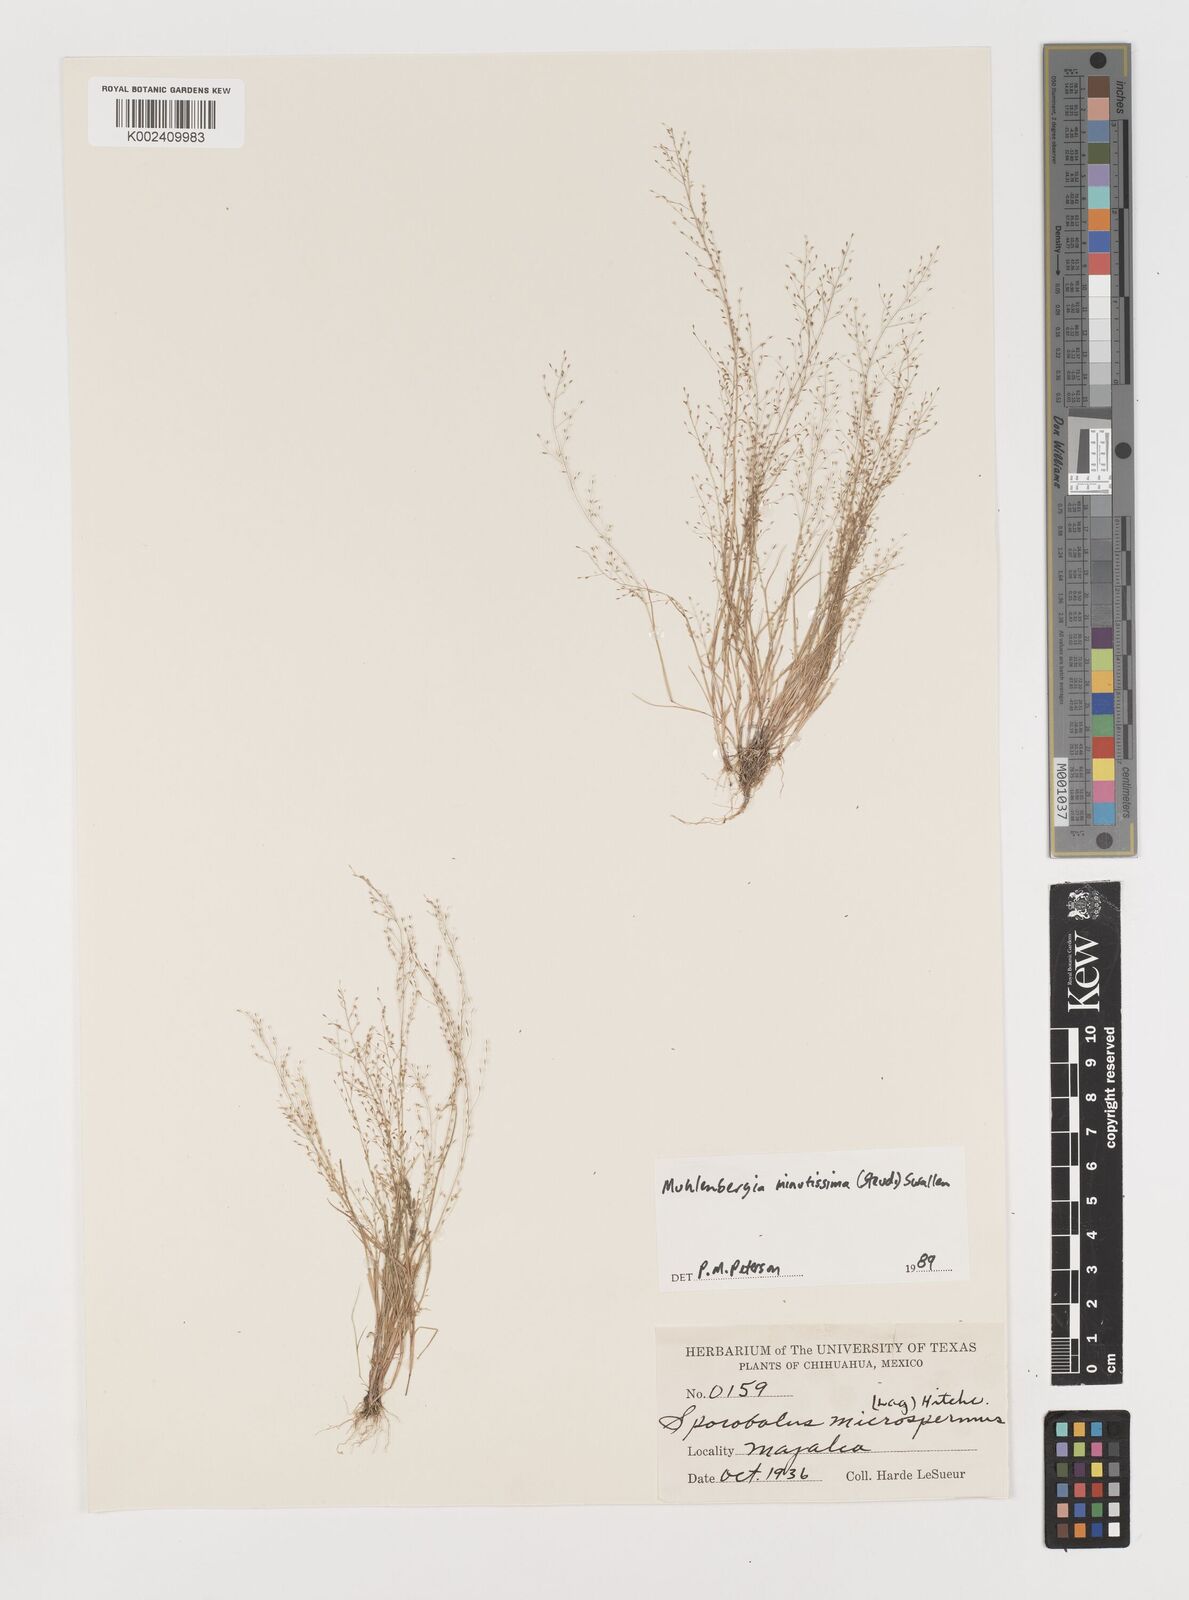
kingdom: Plantae
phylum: Tracheophyta
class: Liliopsida
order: Poales
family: Poaceae
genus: Muhlenbergia
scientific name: Muhlenbergia minutissima
